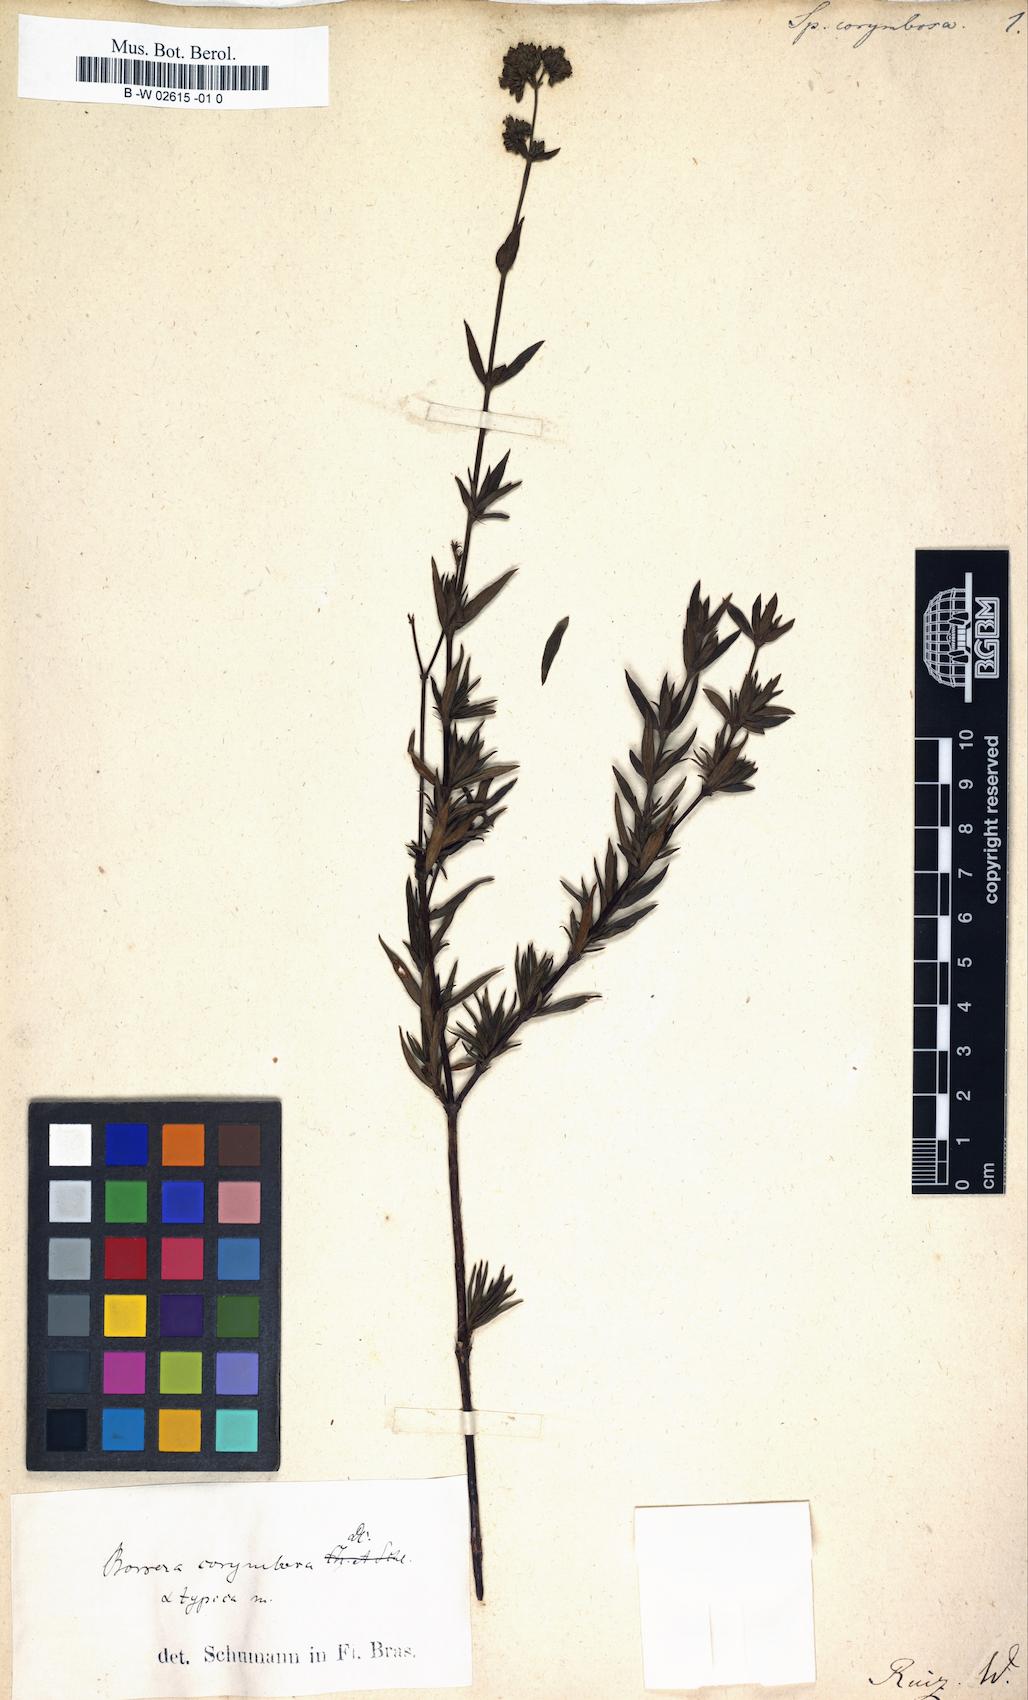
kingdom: Plantae
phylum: Tracheophyta
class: Magnoliopsida
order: Gentianales
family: Rubiaceae
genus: Galianthe
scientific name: Galianthe peruviana
